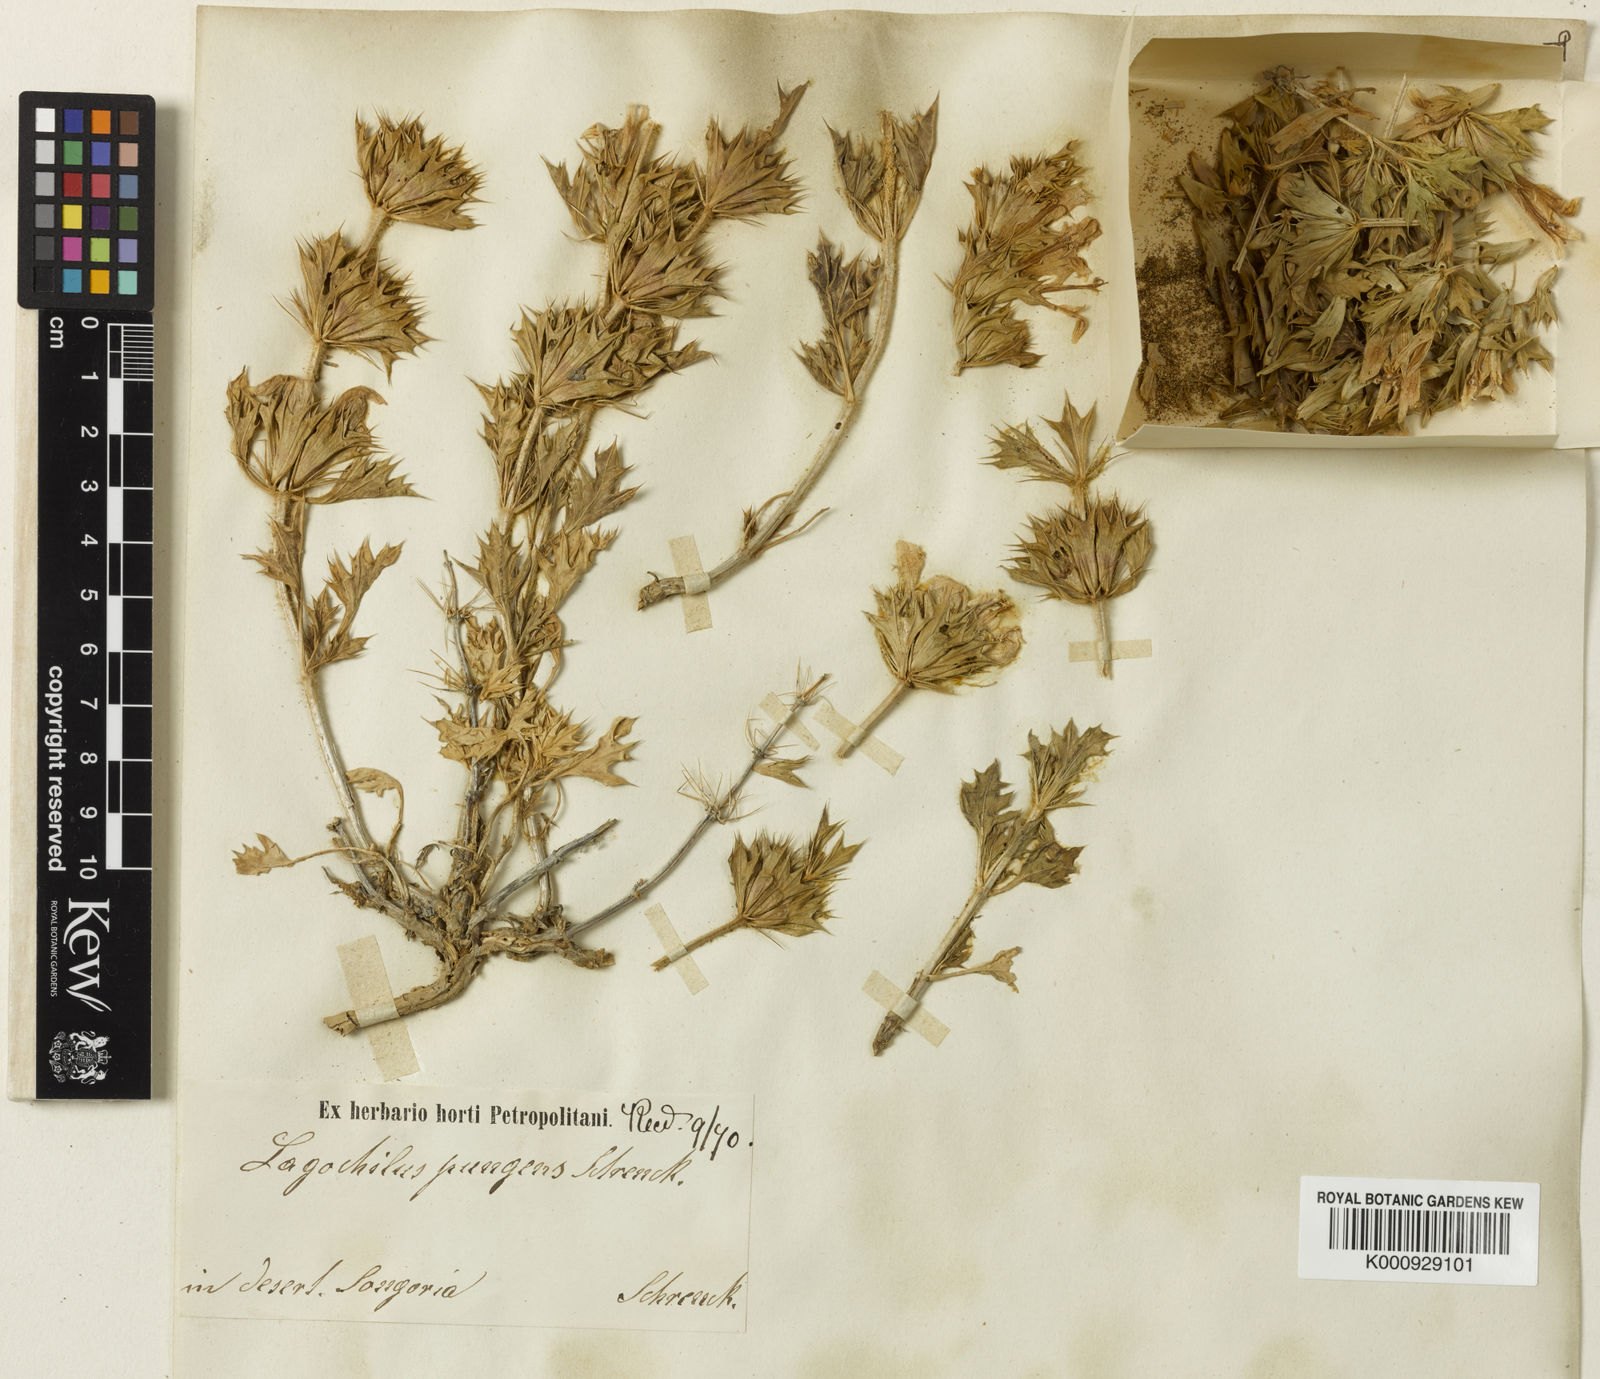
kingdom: Plantae
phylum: Tracheophyta
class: Magnoliopsida
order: Lamiales
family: Lamiaceae
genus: Lagochilus
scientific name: Lagochilus pungens
